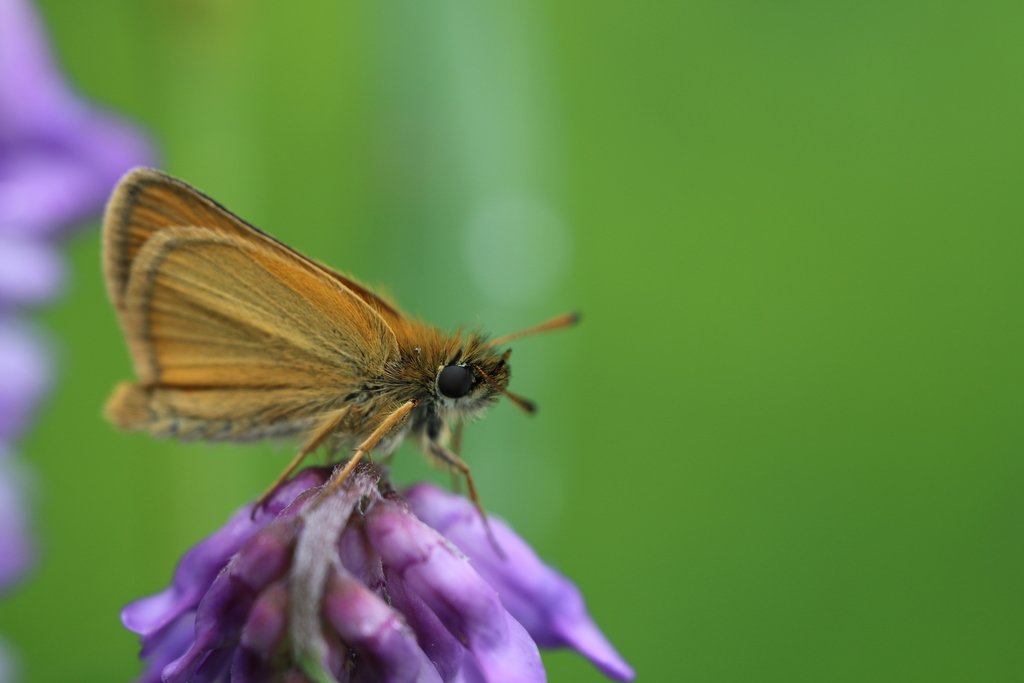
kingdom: Animalia
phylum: Arthropoda
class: Insecta
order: Lepidoptera
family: Hesperiidae
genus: Thymelicus
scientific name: Thymelicus lineola
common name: European Skipper
